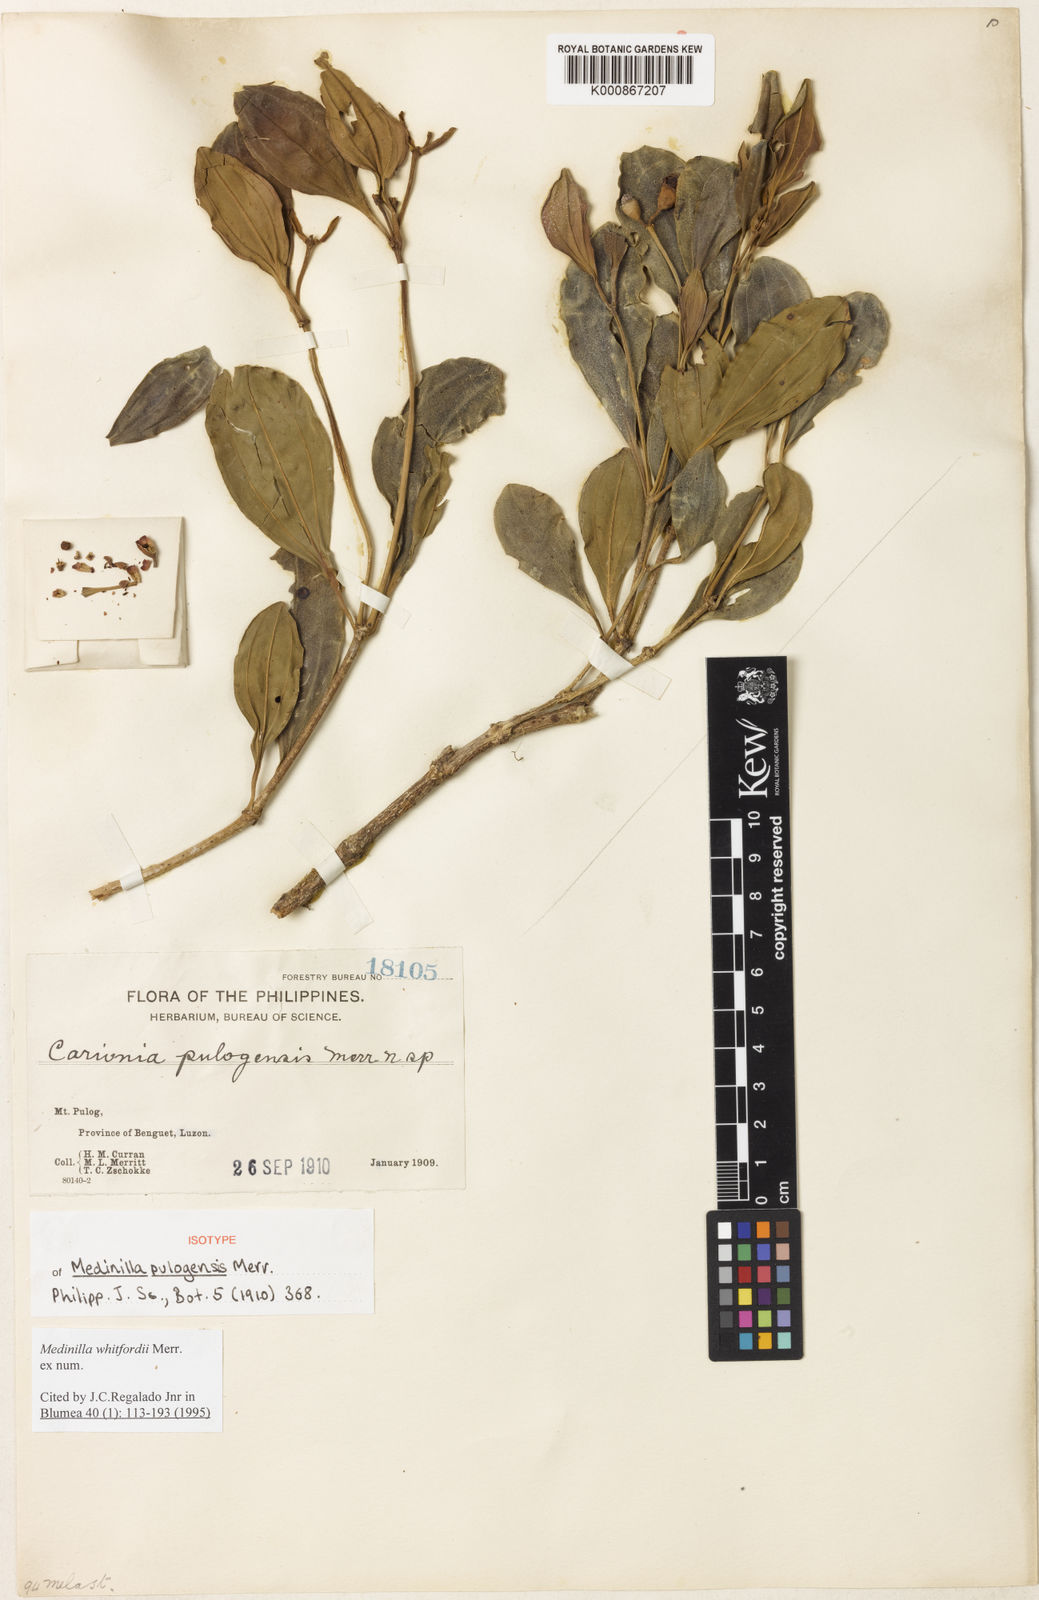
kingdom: Plantae
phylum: Tracheophyta
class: Magnoliopsida
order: Myrtales
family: Melastomataceae
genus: Medinilla
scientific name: Medinilla whitfordii
